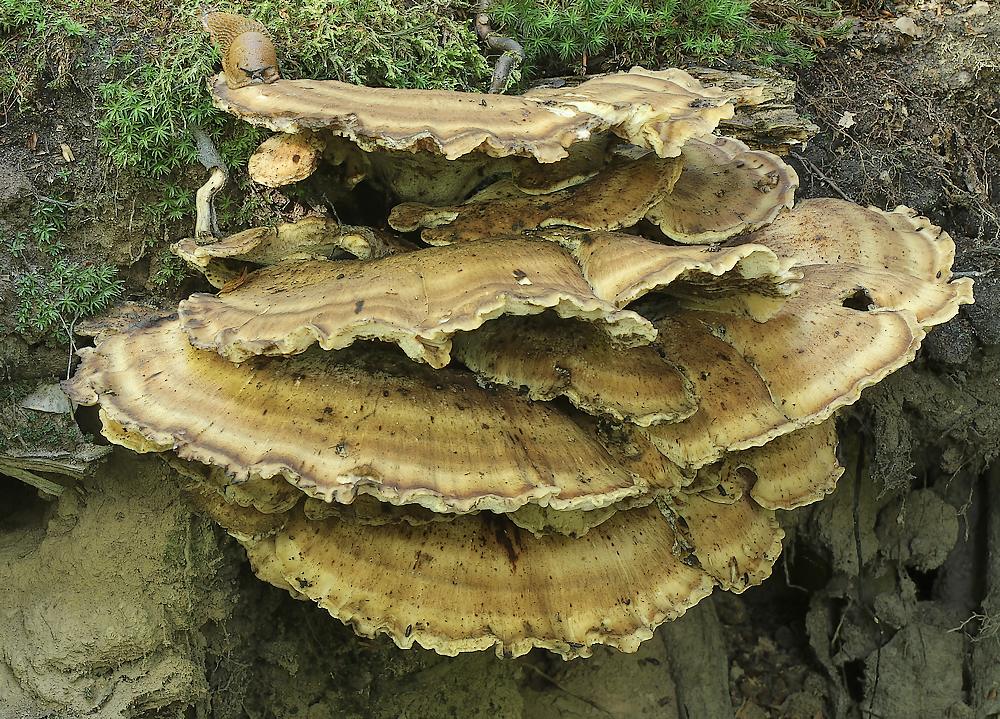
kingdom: Fungi
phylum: Basidiomycota
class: Agaricomycetes
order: Polyporales
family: Meripilaceae
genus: Meripilus
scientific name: Meripilus giganteus
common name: kæmpeporesvamp
